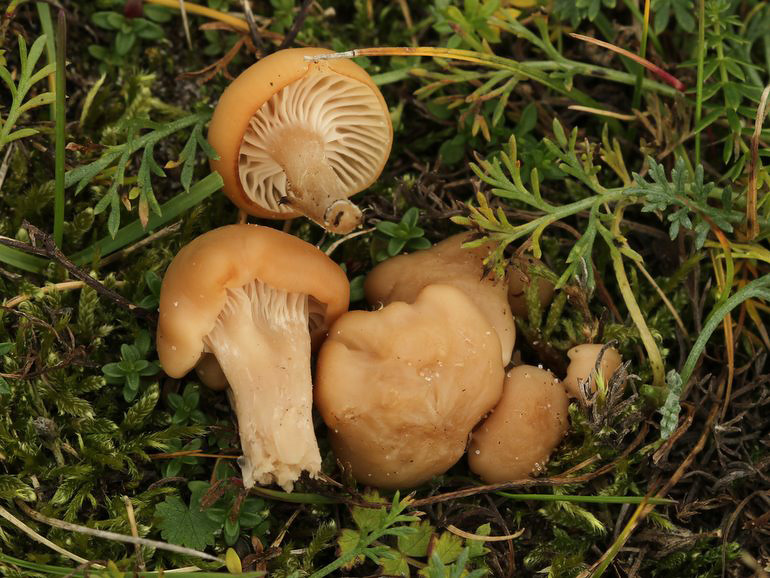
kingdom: Fungi
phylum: Basidiomycota
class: Agaricomycetes
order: Agaricales
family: Hygrophoraceae
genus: Cuphophyllus
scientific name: Cuphophyllus virgineus
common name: isabella-vokshat
